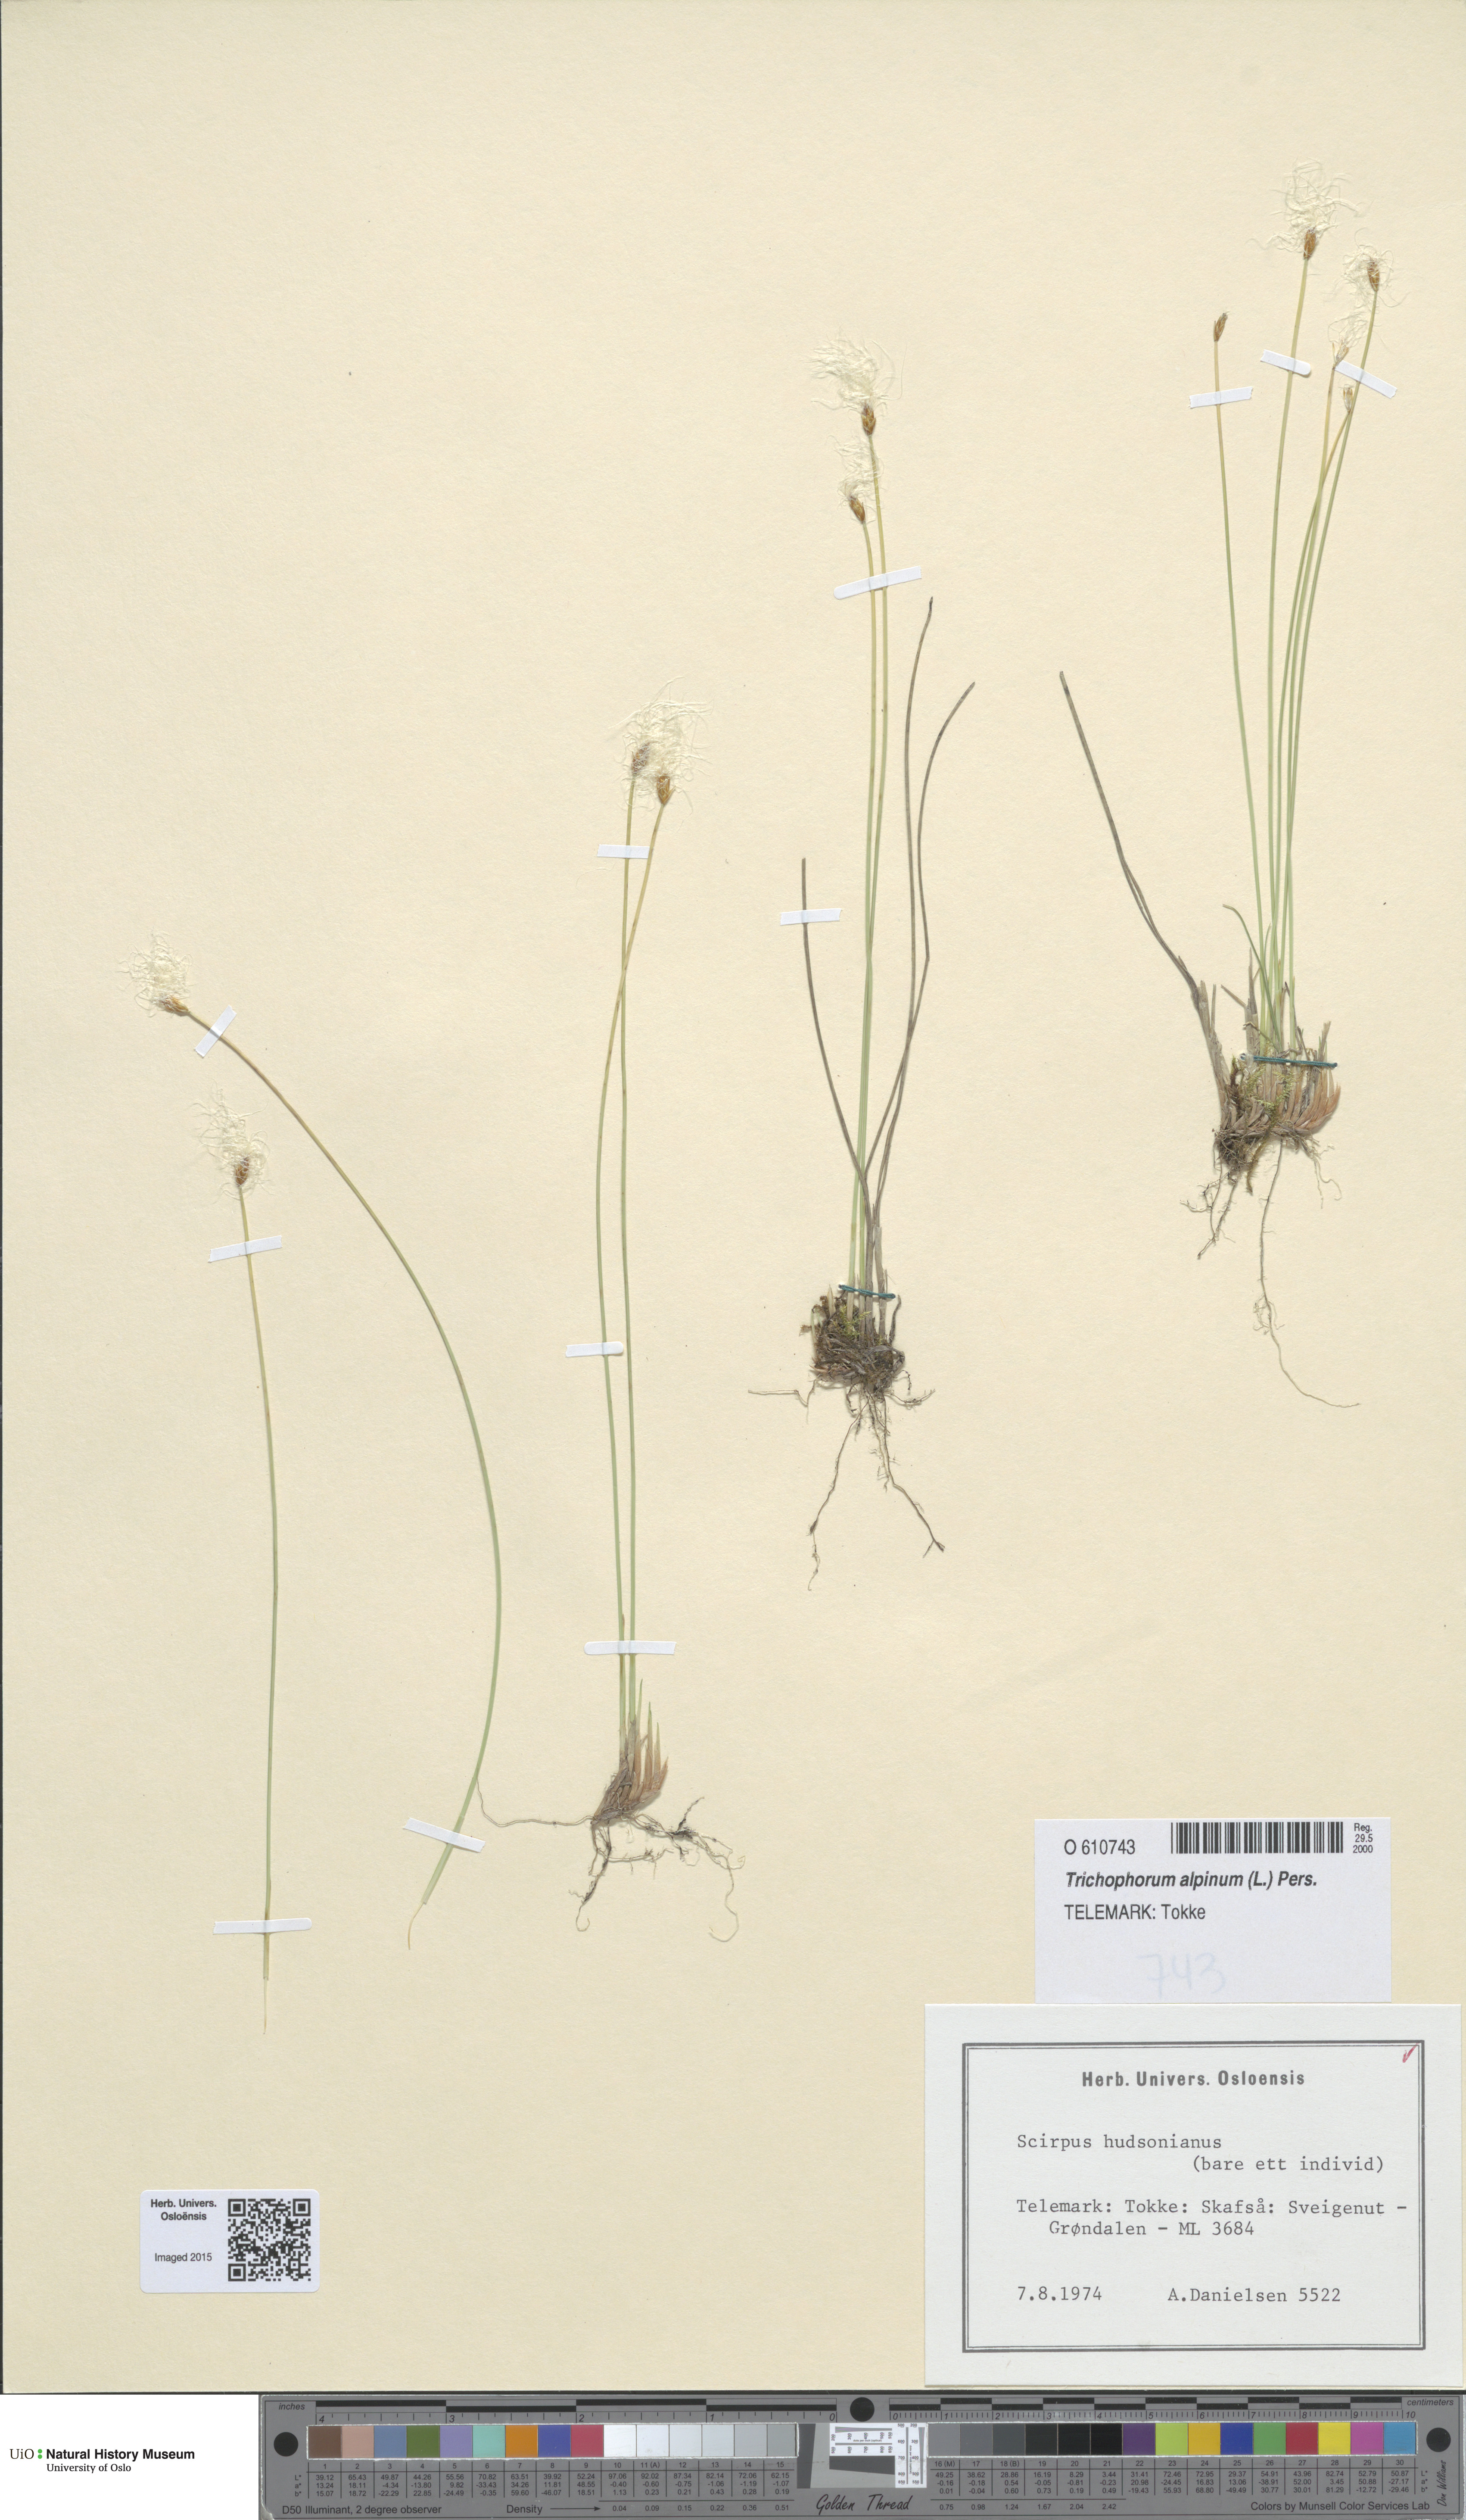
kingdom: Plantae
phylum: Tracheophyta
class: Liliopsida
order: Poales
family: Cyperaceae
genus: Trichophorum
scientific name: Trichophorum alpinum
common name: Alpine bulrush
